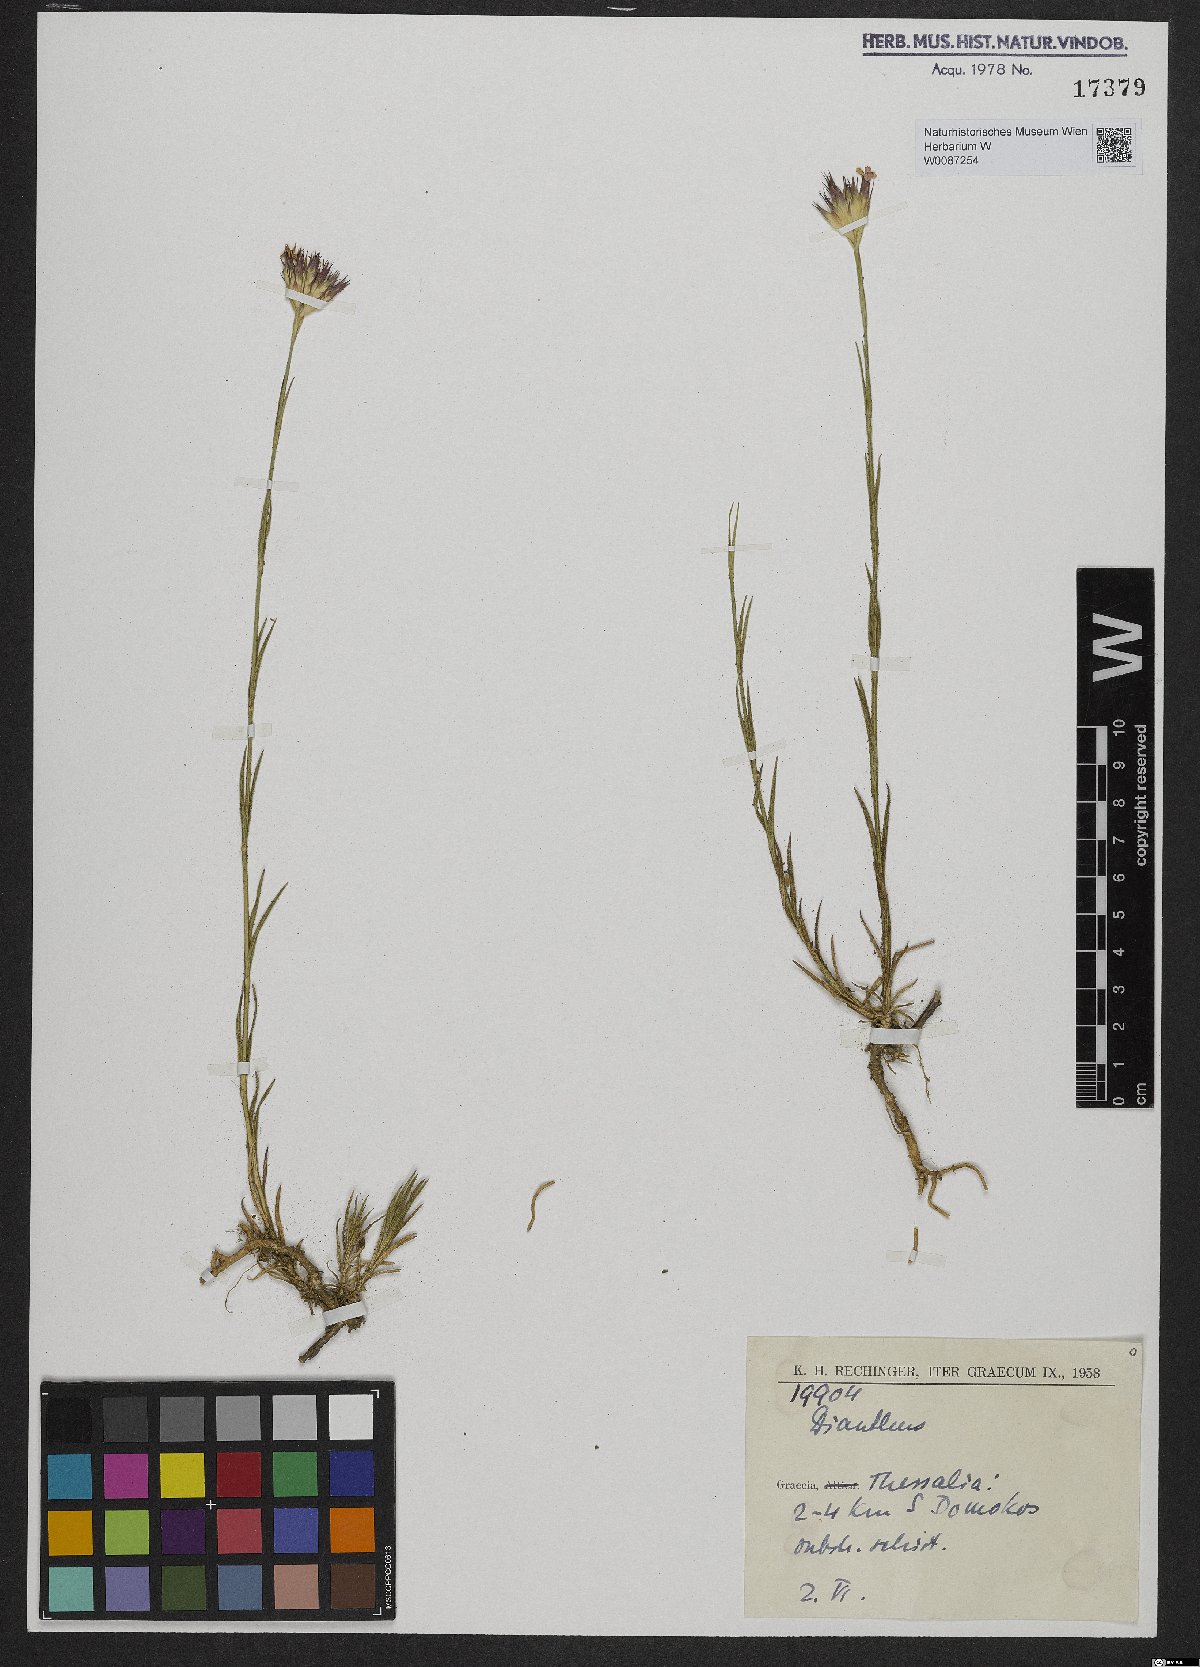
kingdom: Plantae
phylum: Tracheophyta
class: Magnoliopsida
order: Caryophyllales
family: Caryophyllaceae
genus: Dianthus
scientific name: Dianthus
